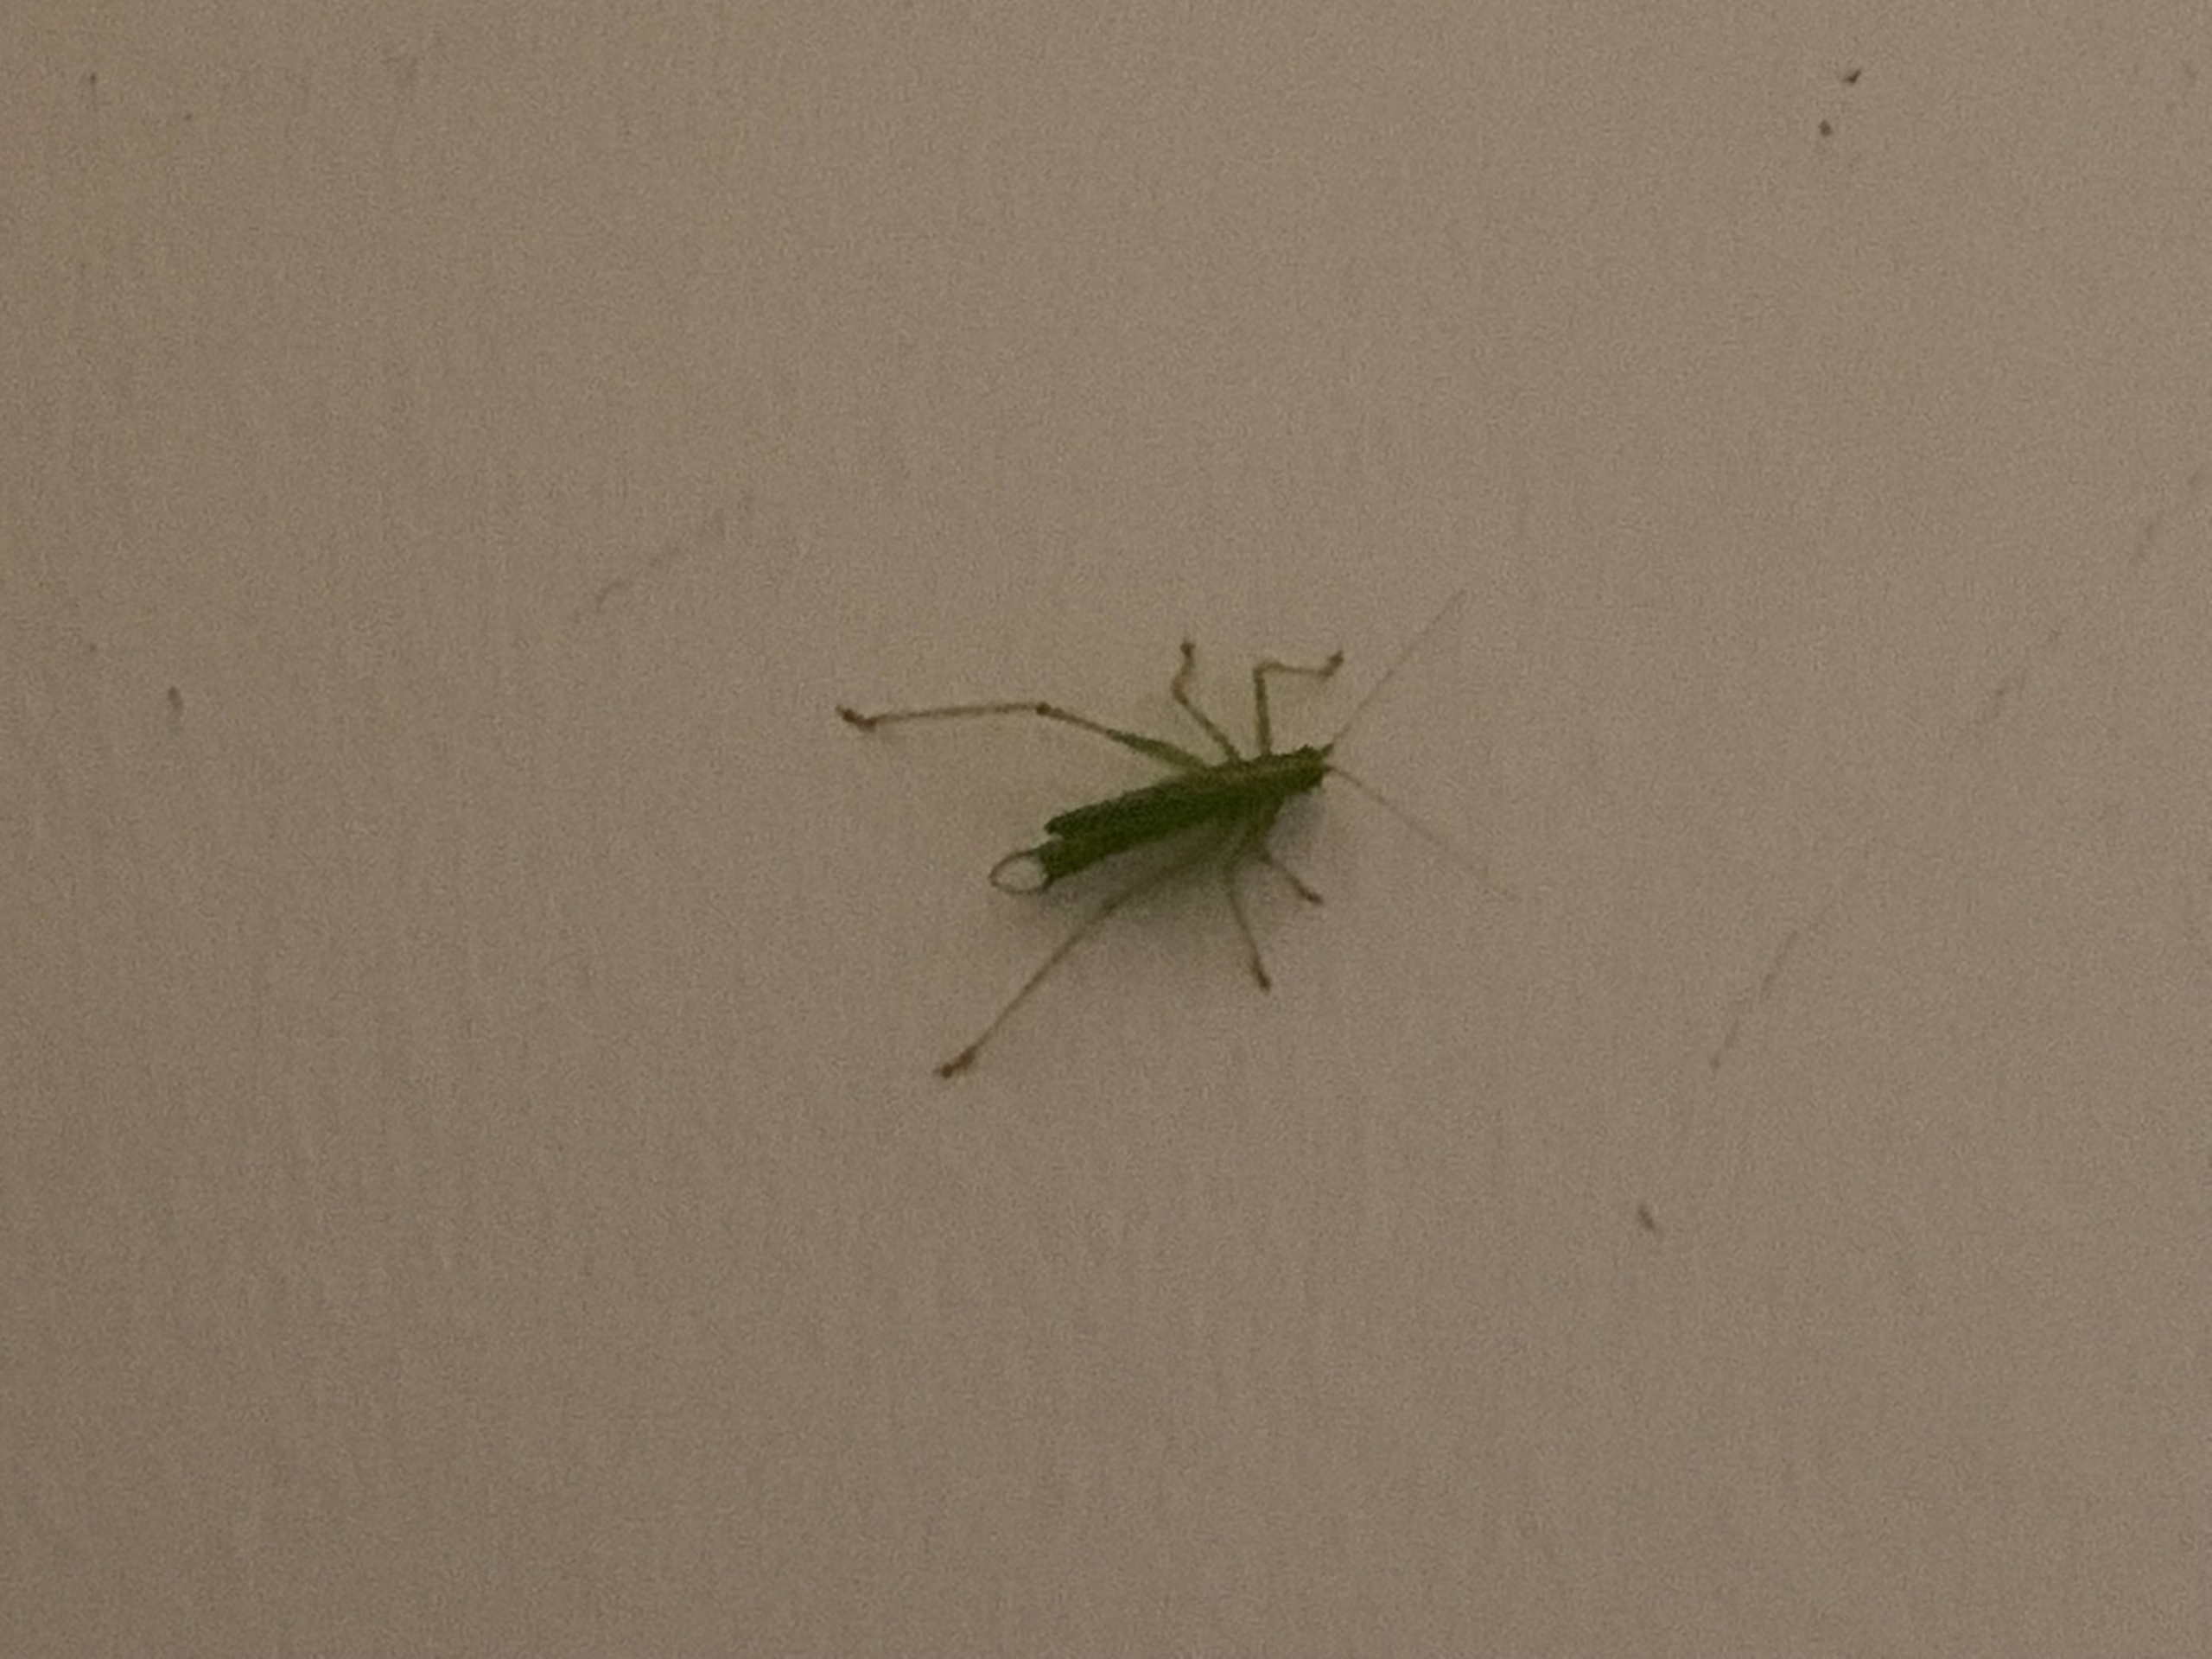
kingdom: Animalia
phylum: Arthropoda
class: Insecta
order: Orthoptera
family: Tettigoniidae
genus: Meconema
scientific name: Meconema thalassinum
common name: Egegræshoppe
